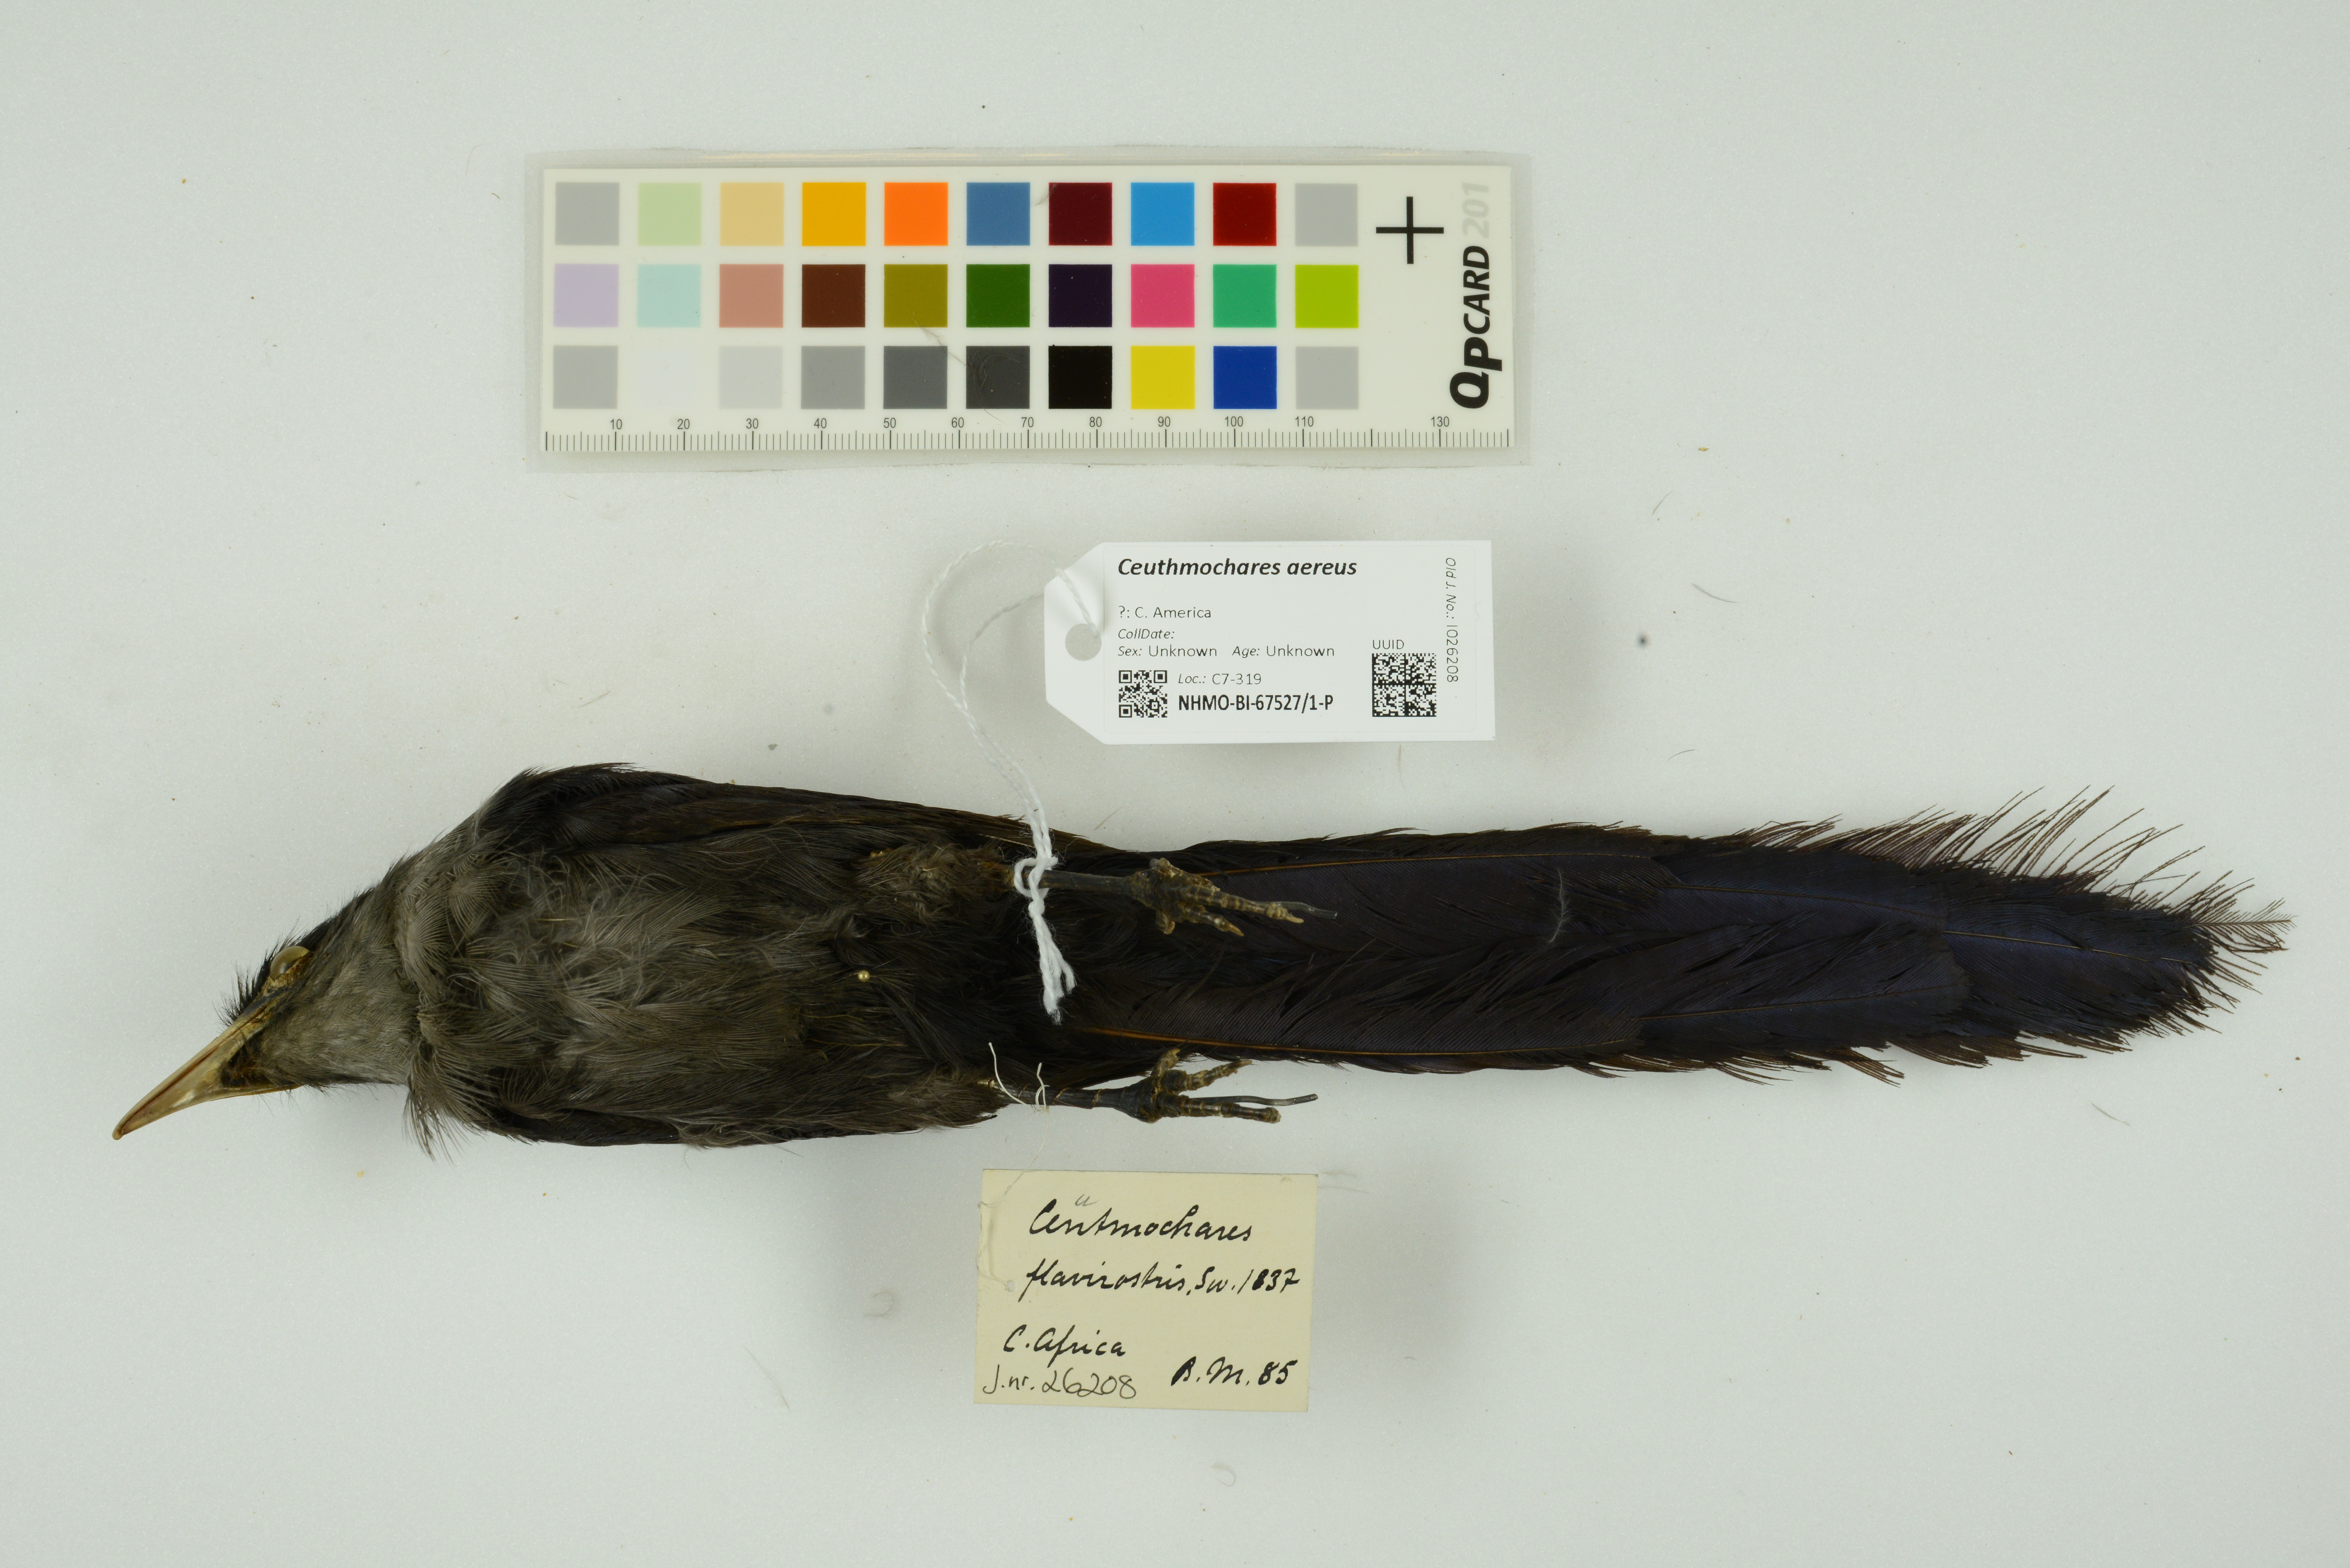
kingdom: Animalia
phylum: Chordata
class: Aves
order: Cuculiformes
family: Cuculidae
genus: Ceuthmochares
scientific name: Ceuthmochares aereus
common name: Blue malkoha
